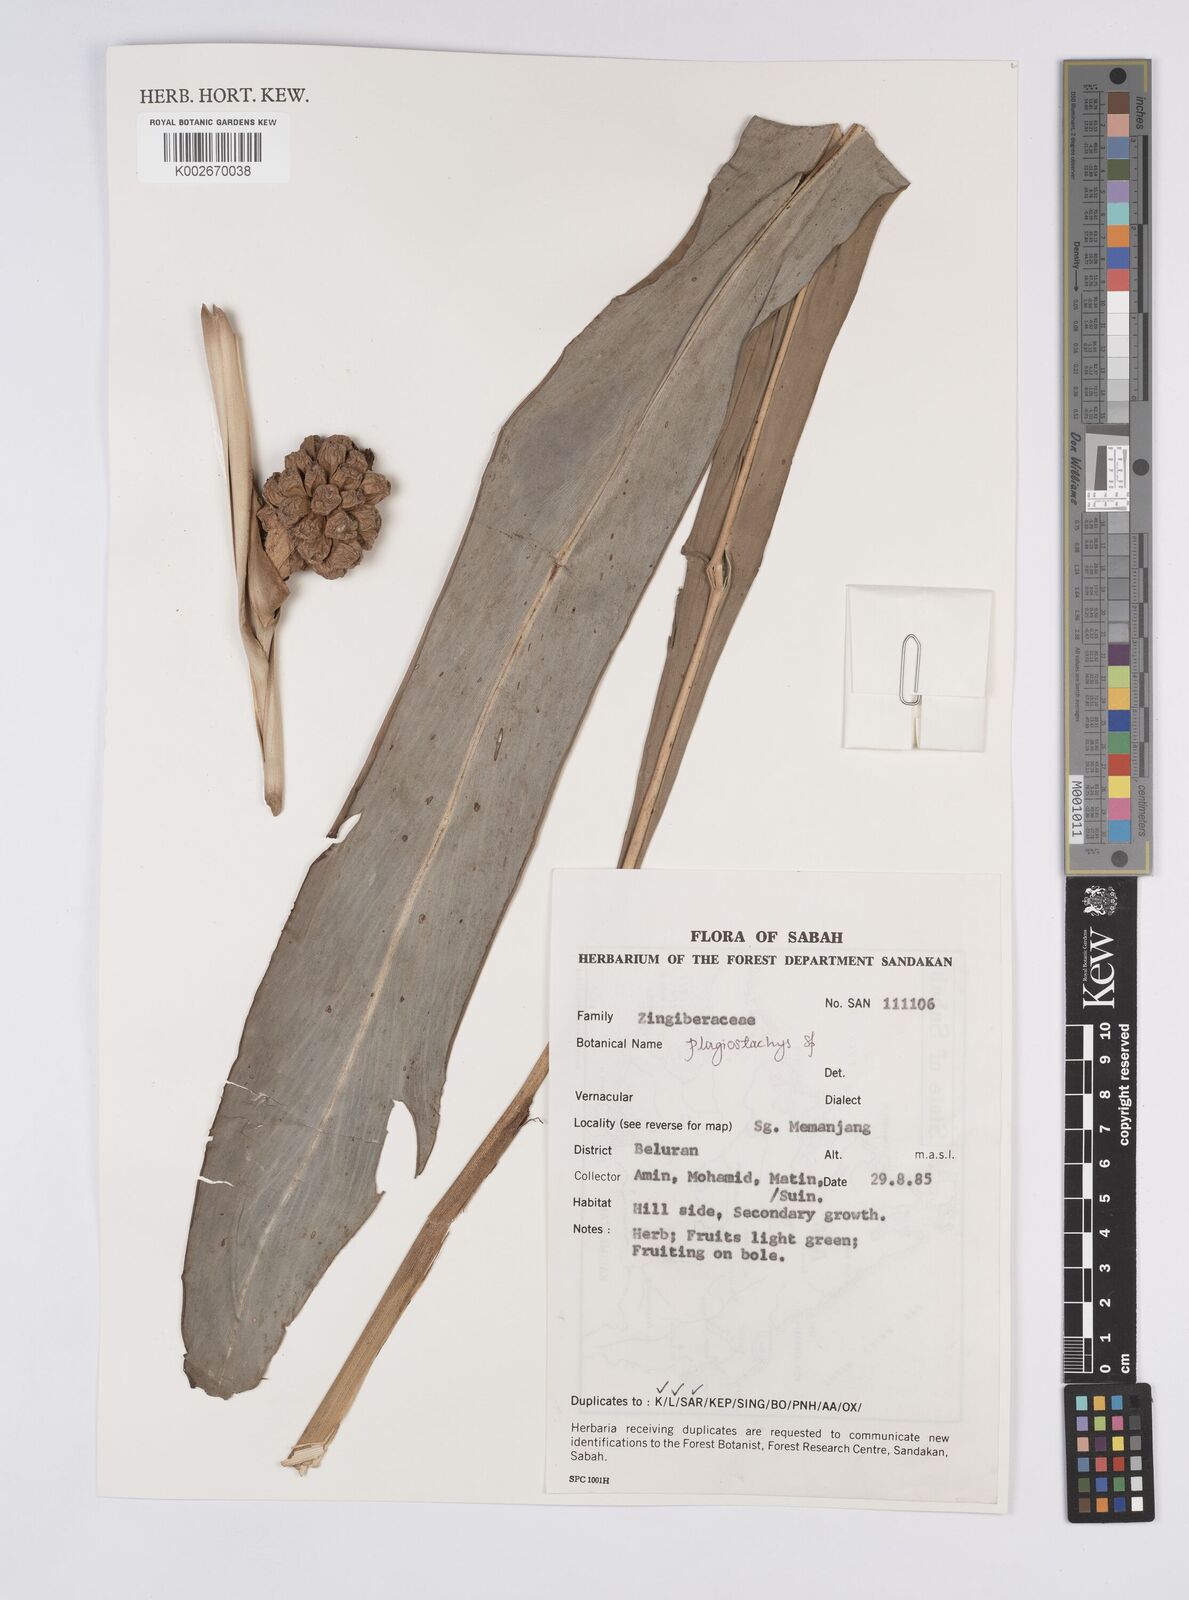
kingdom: Plantae
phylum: Tracheophyta
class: Liliopsida
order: Zingiberales
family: Zingiberaceae
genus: Plagiostachys
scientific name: Plagiostachys
